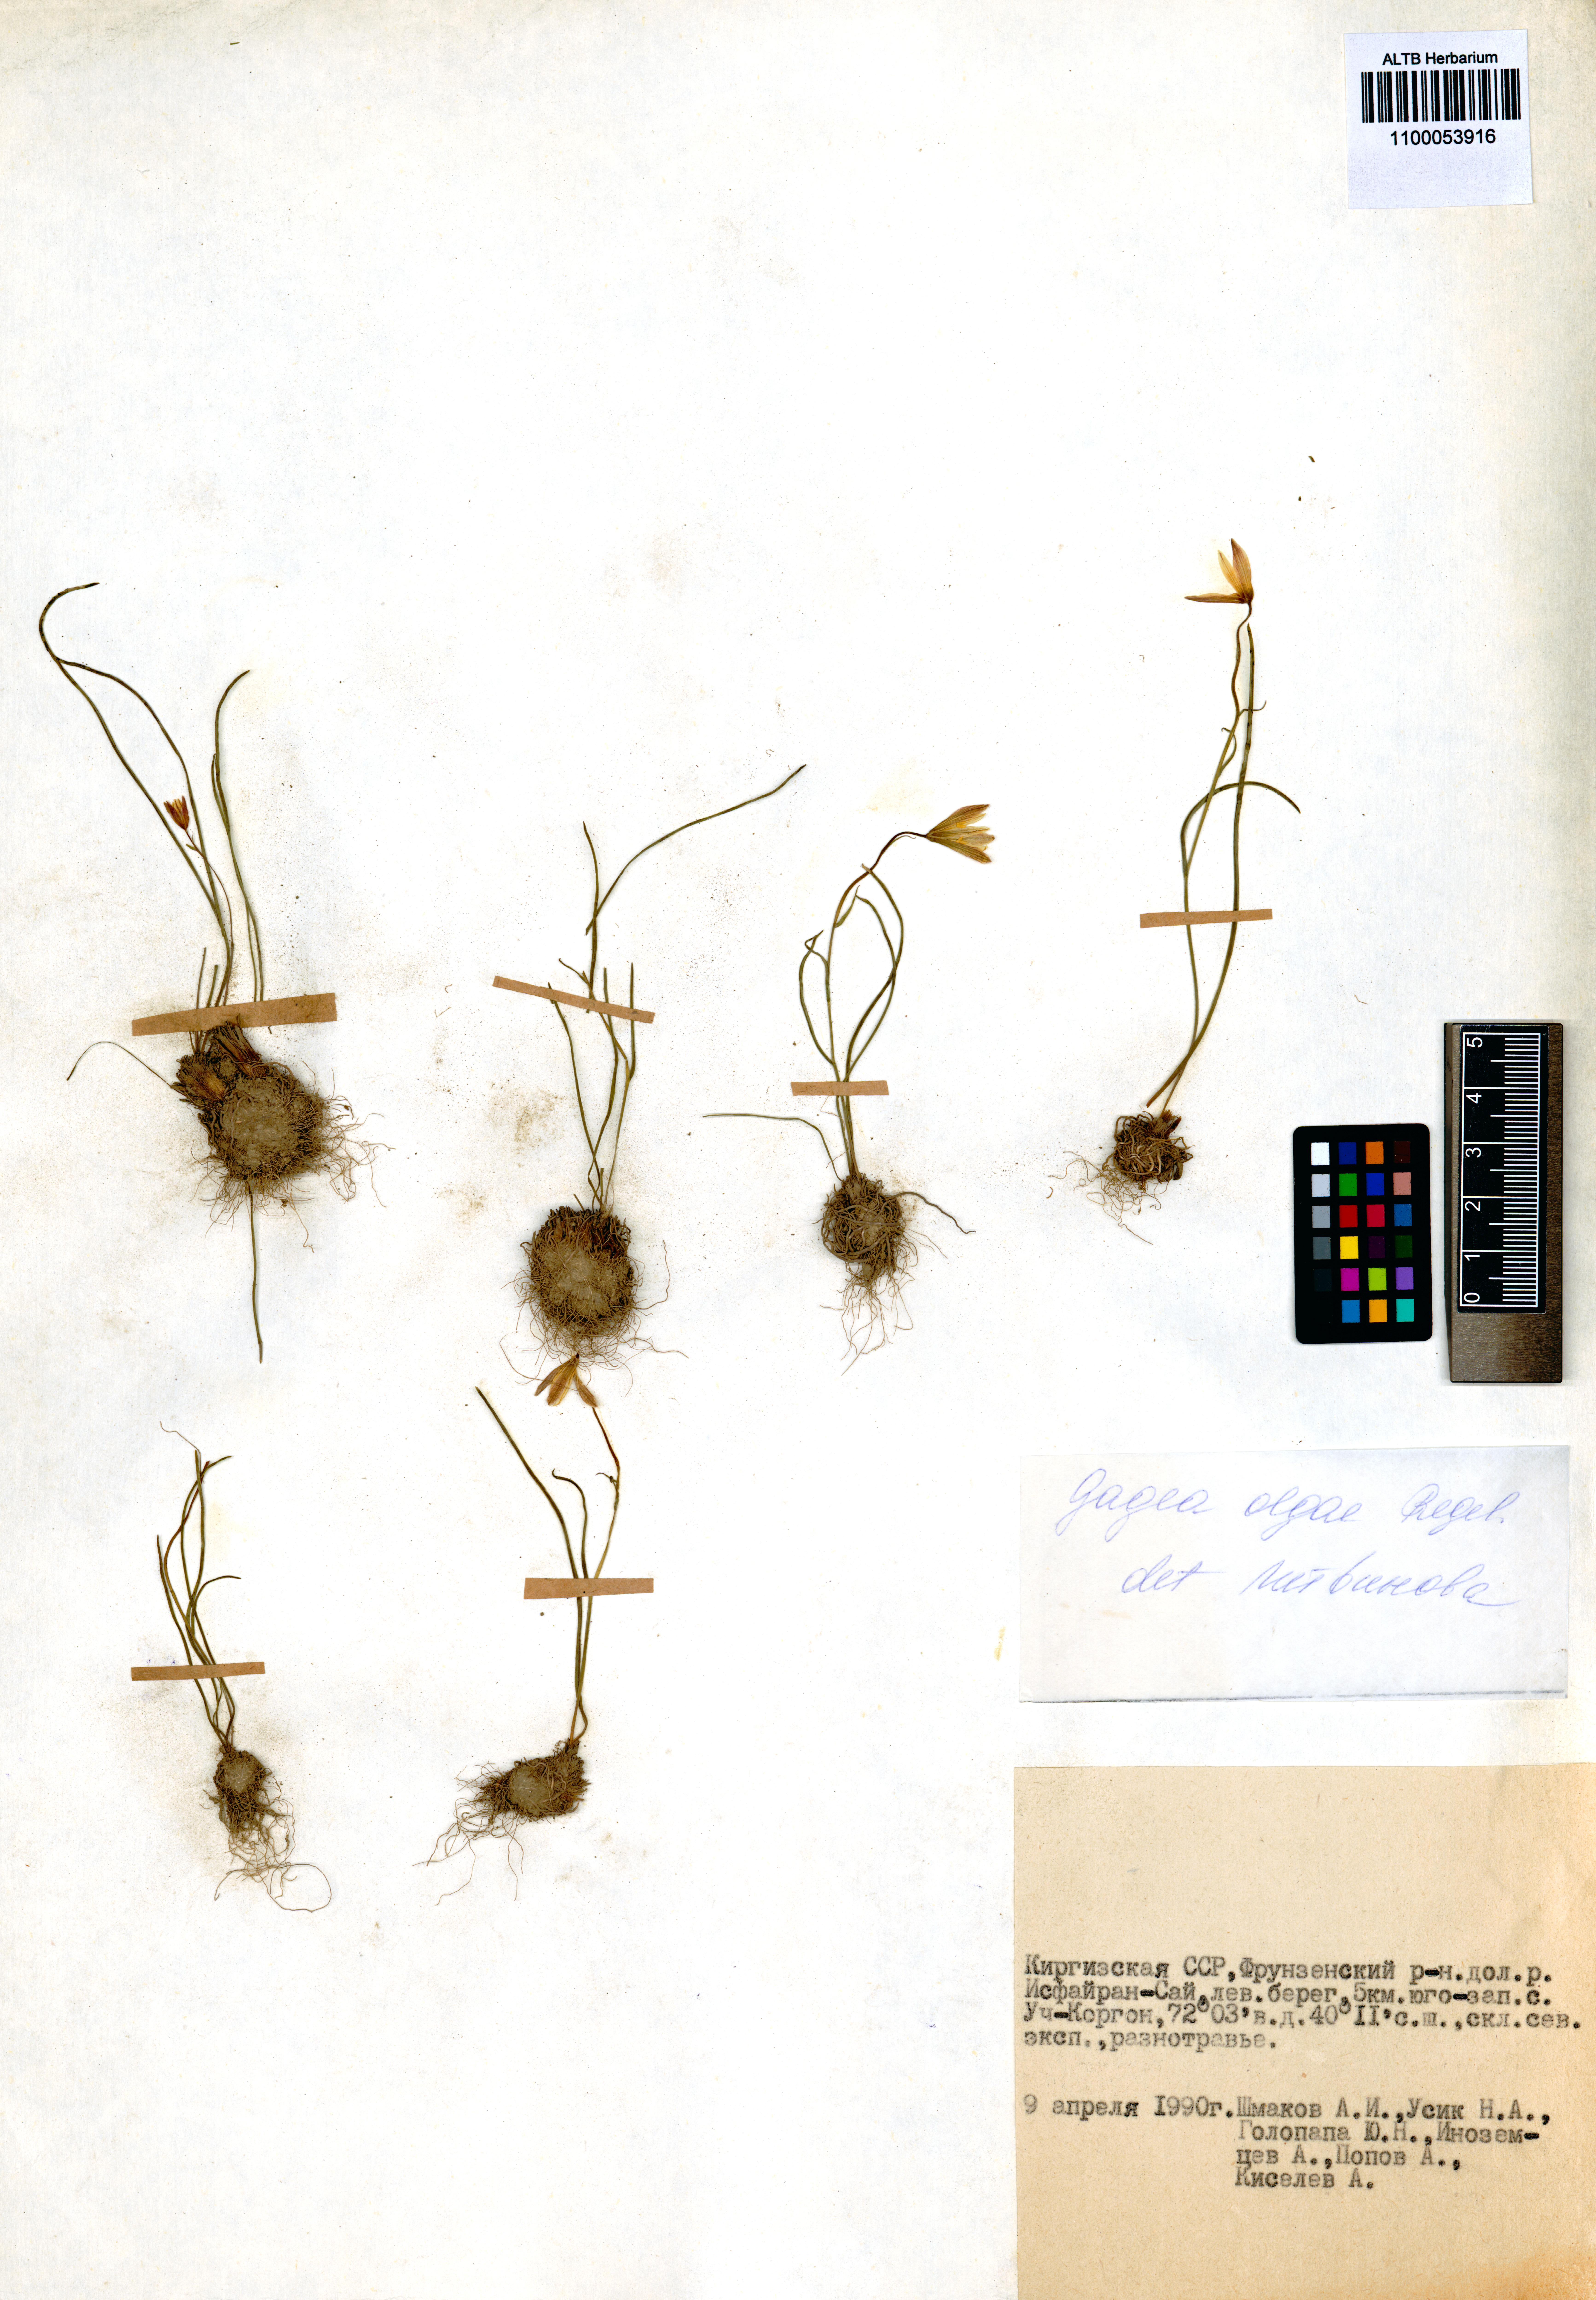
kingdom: Plantae
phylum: Tracheophyta
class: Liliopsida
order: Liliales
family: Liliaceae
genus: Gagea
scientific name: Gagea olgae
